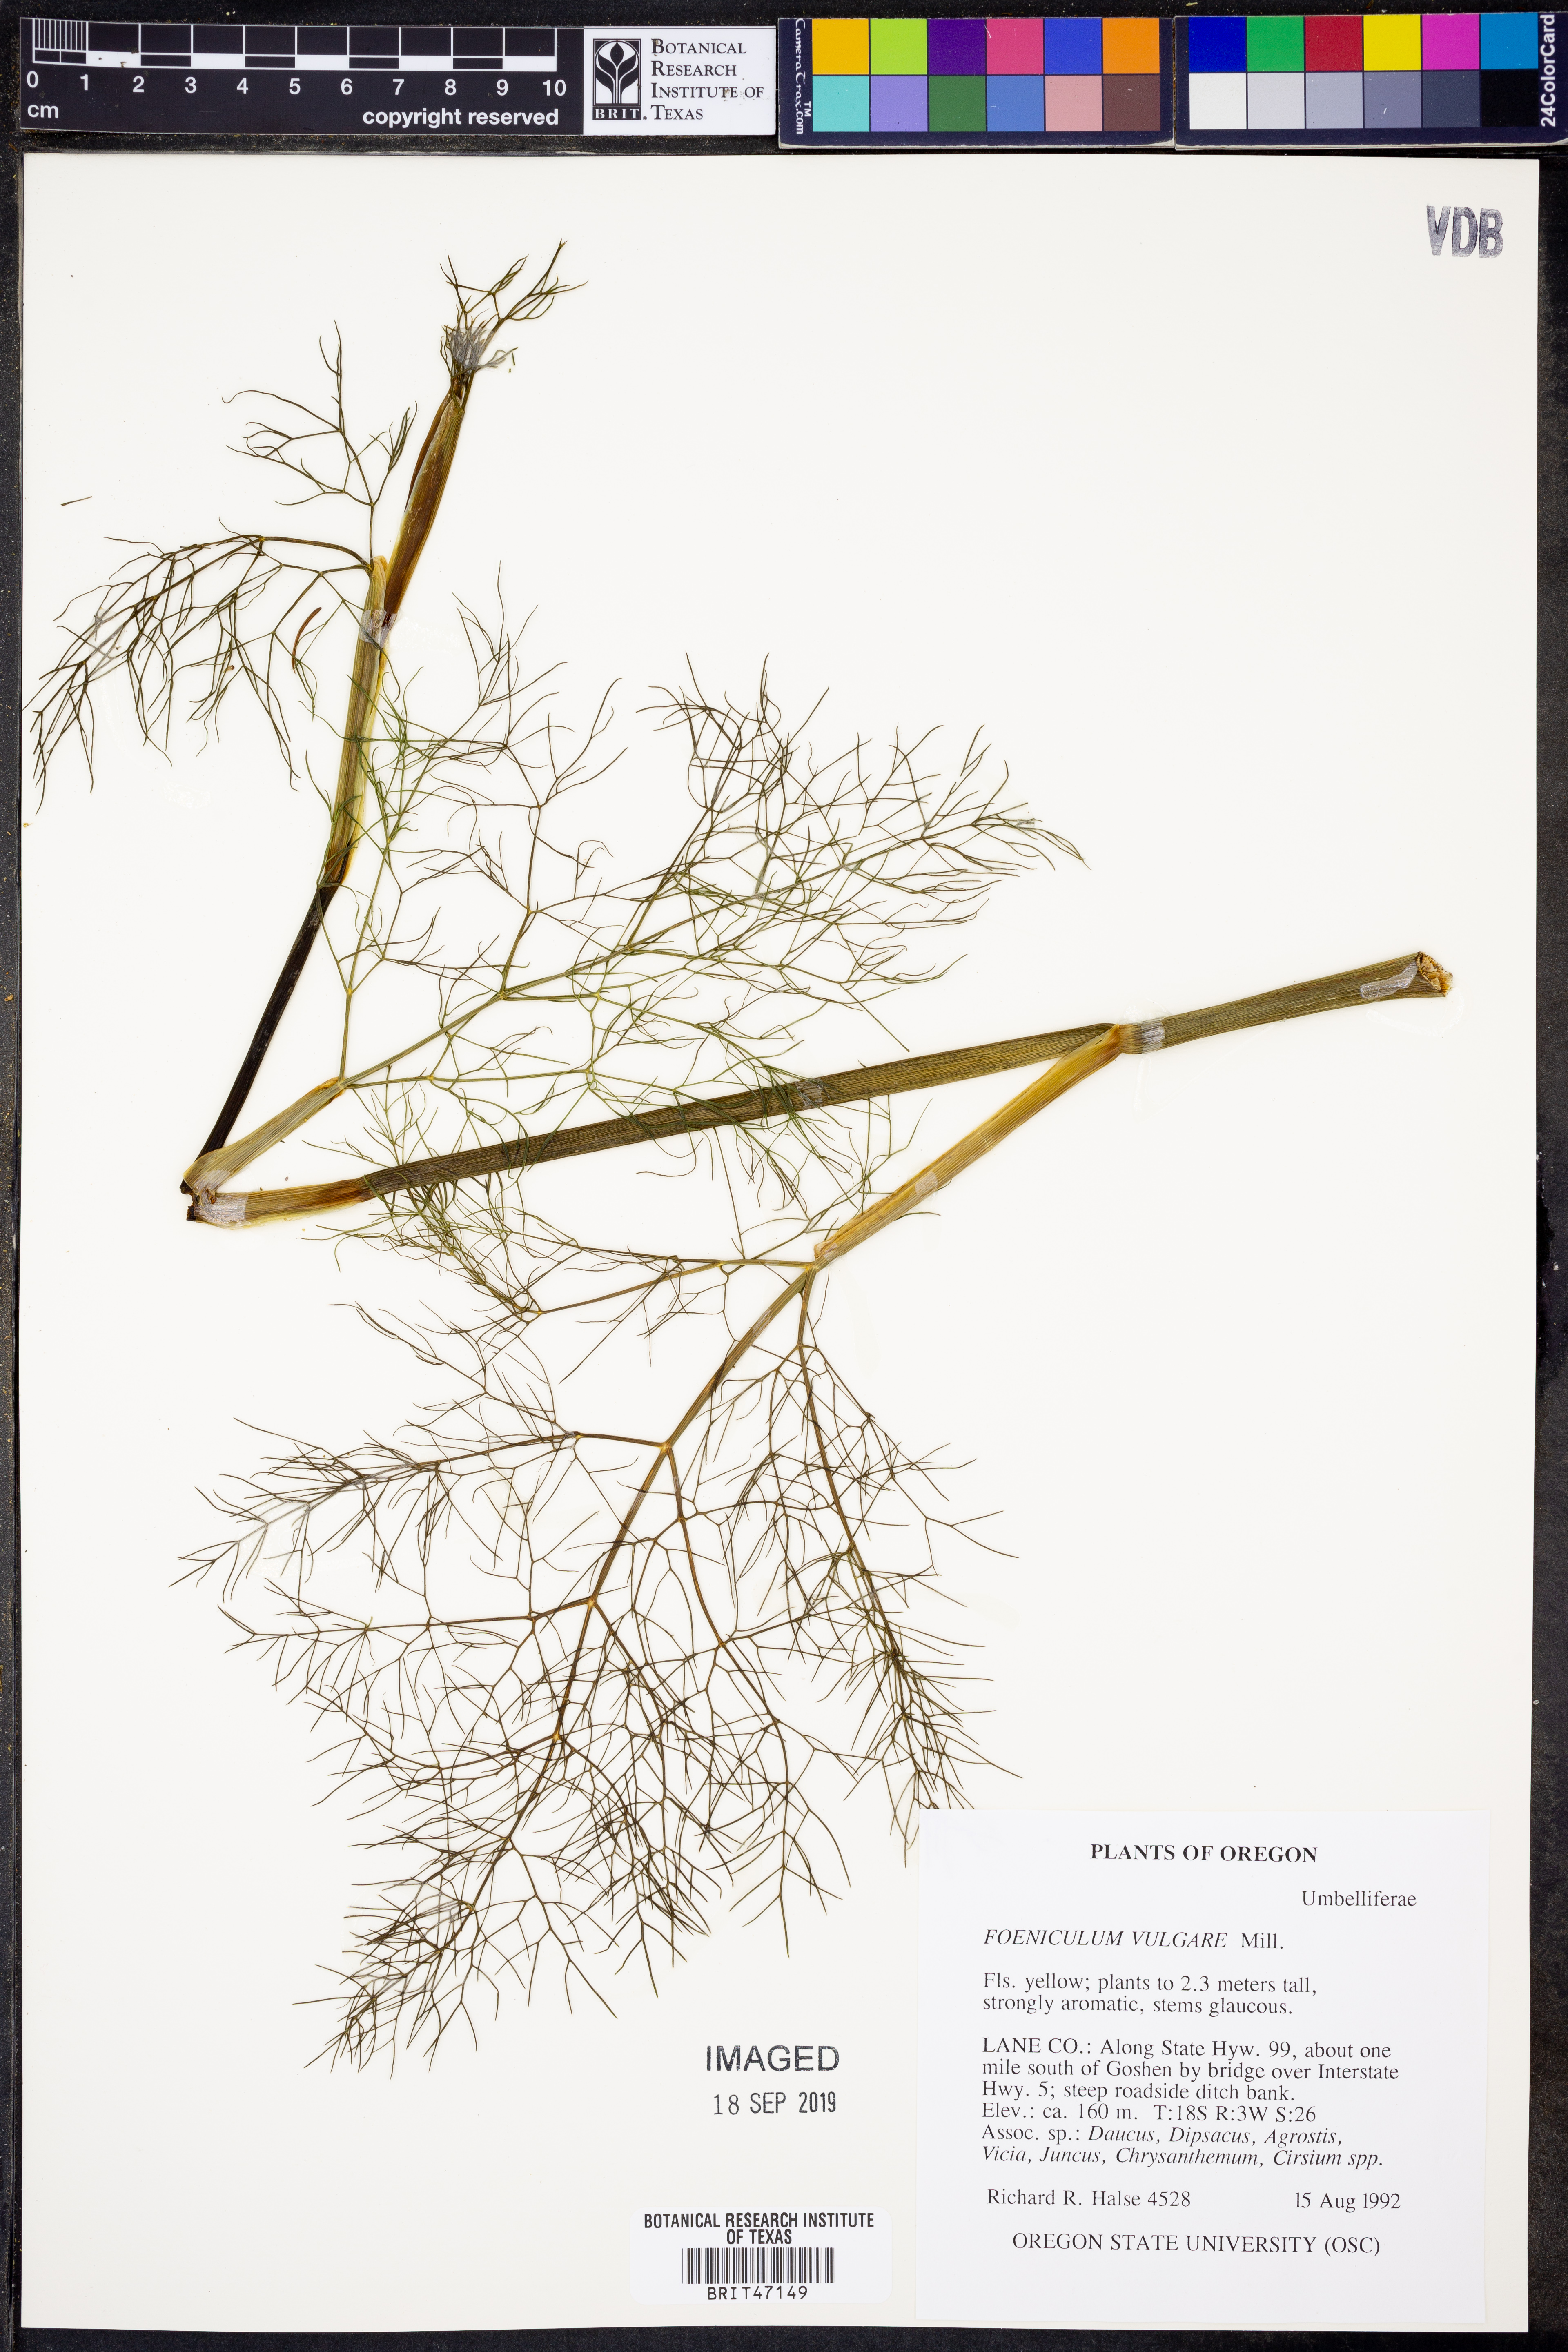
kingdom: Plantae
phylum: Tracheophyta
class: Magnoliopsida
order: Apiales
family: Apiaceae
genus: Foeniculum
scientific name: Foeniculum vulgare
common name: Fennel
